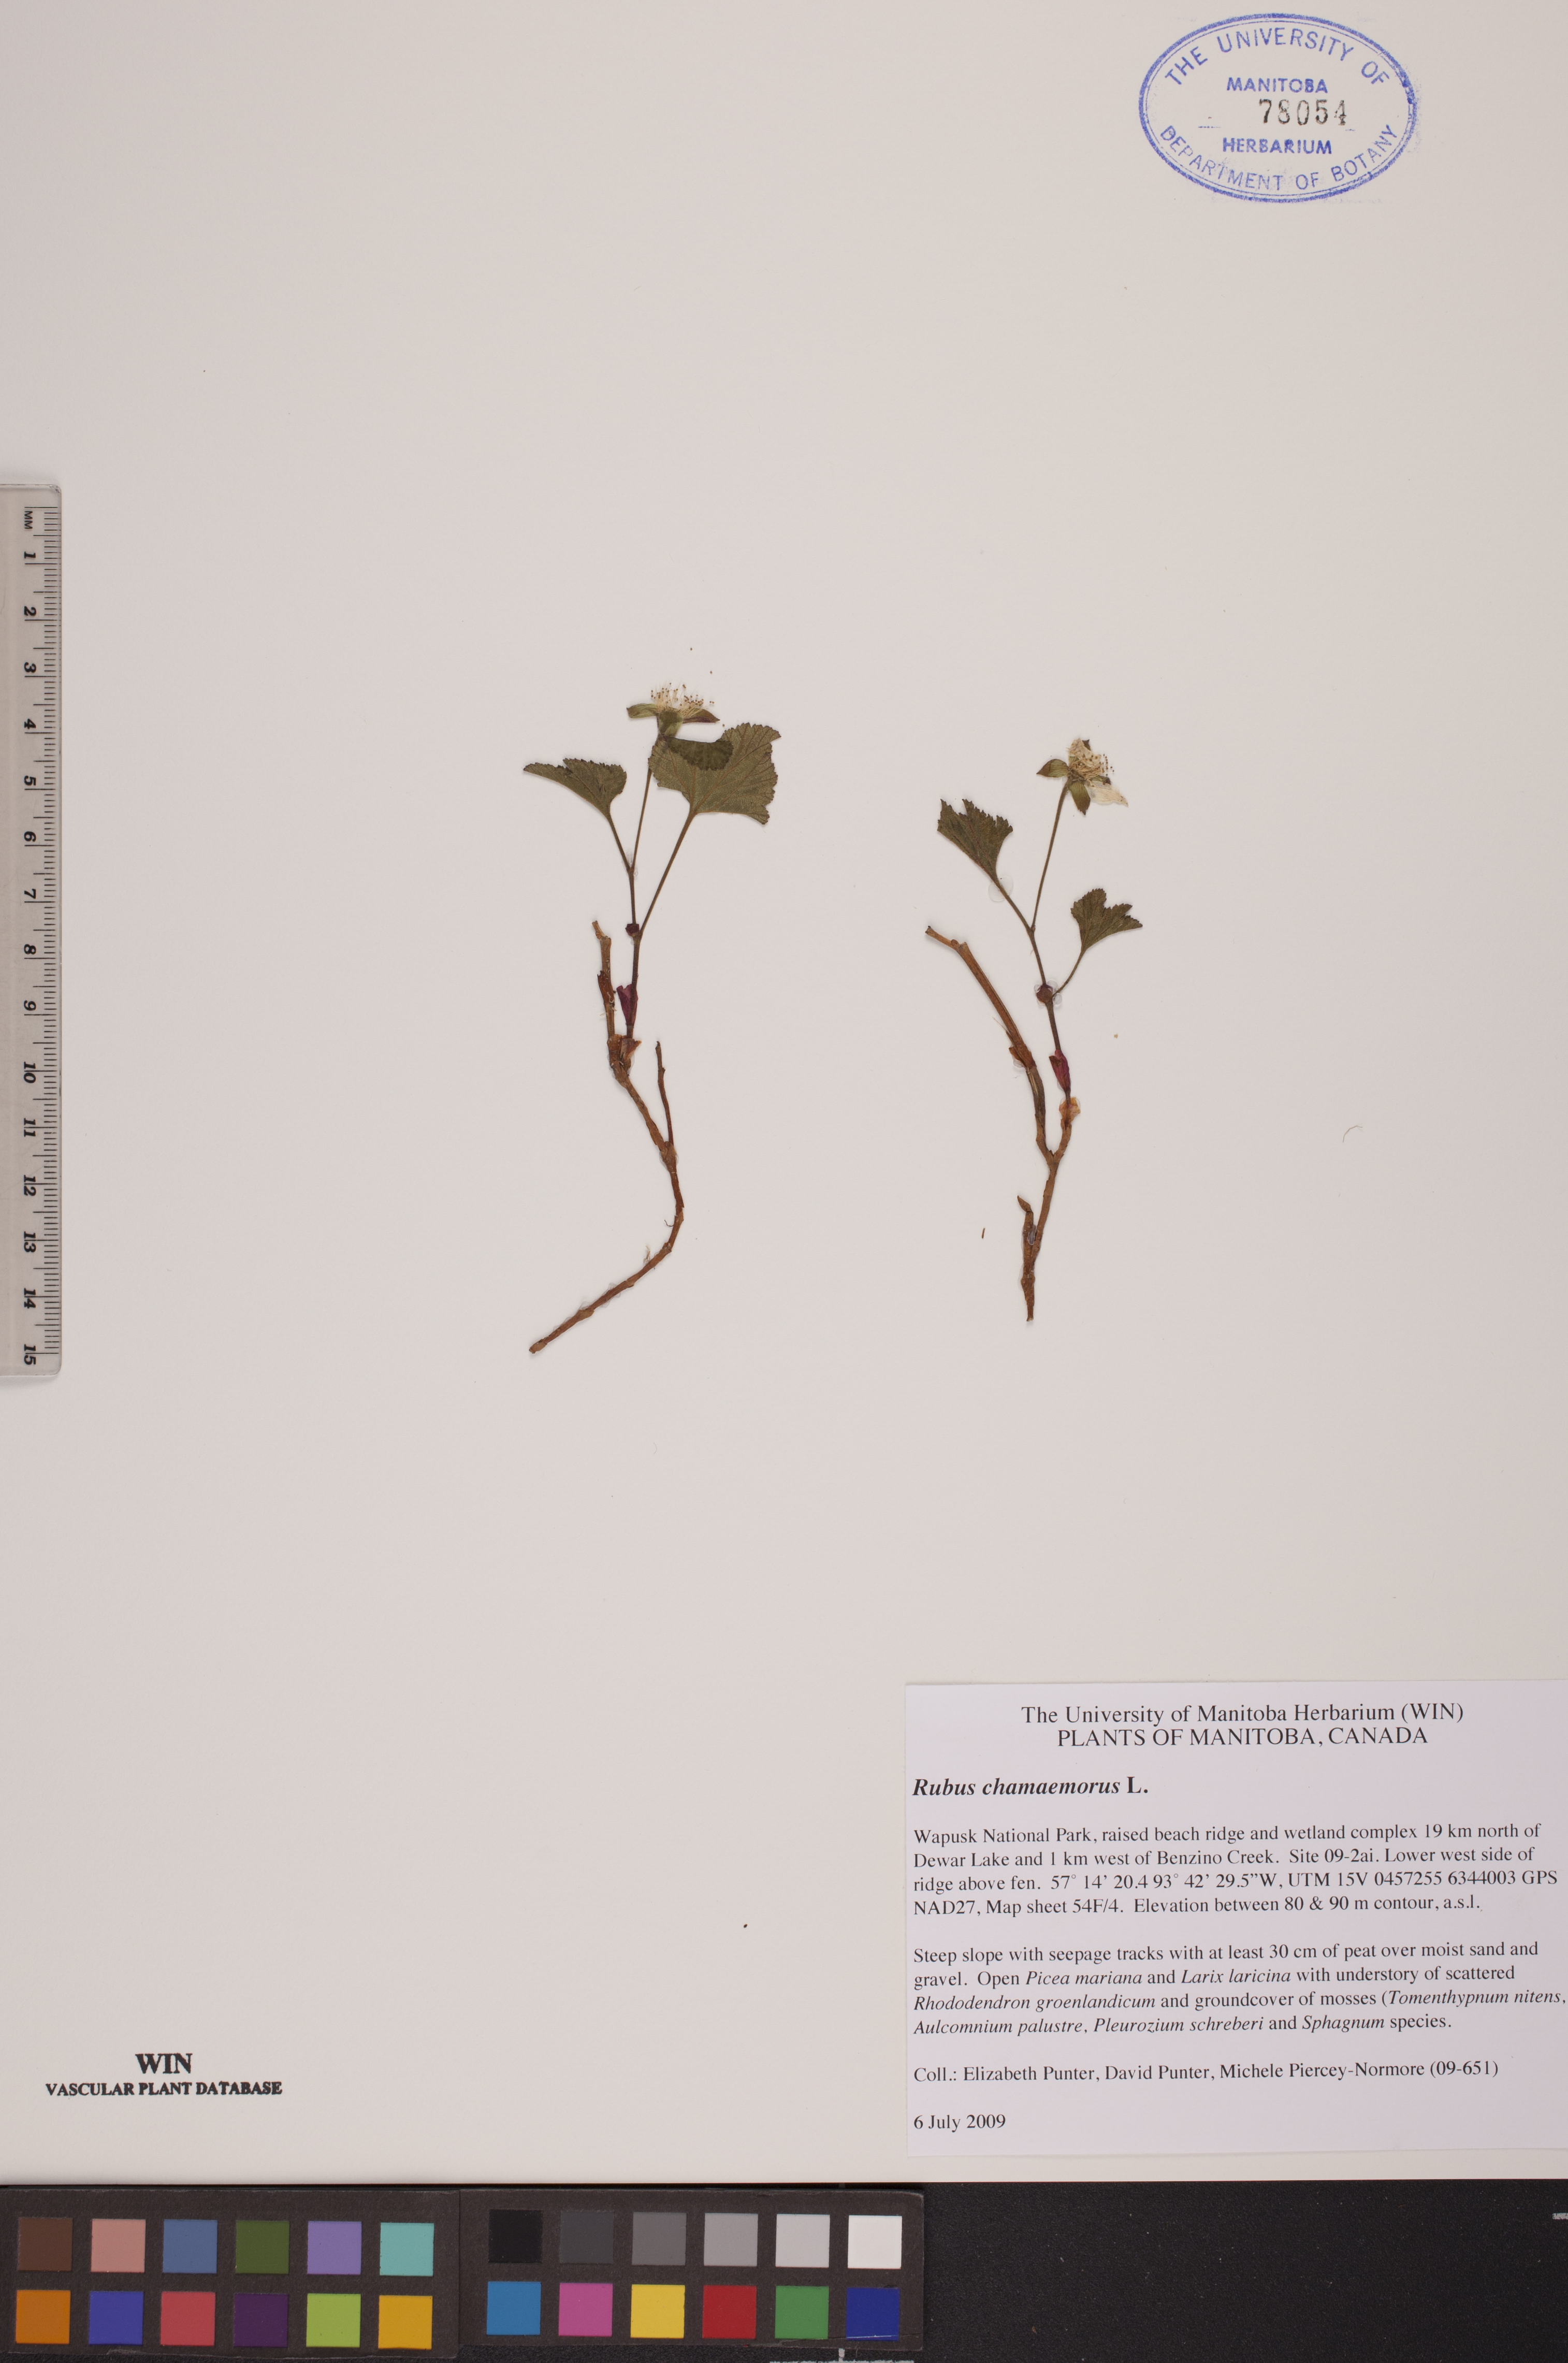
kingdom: Plantae
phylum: Tracheophyta
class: Magnoliopsida
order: Rosales
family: Rosaceae
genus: Rubus
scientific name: Rubus chamaemorus
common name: Cloudberry
